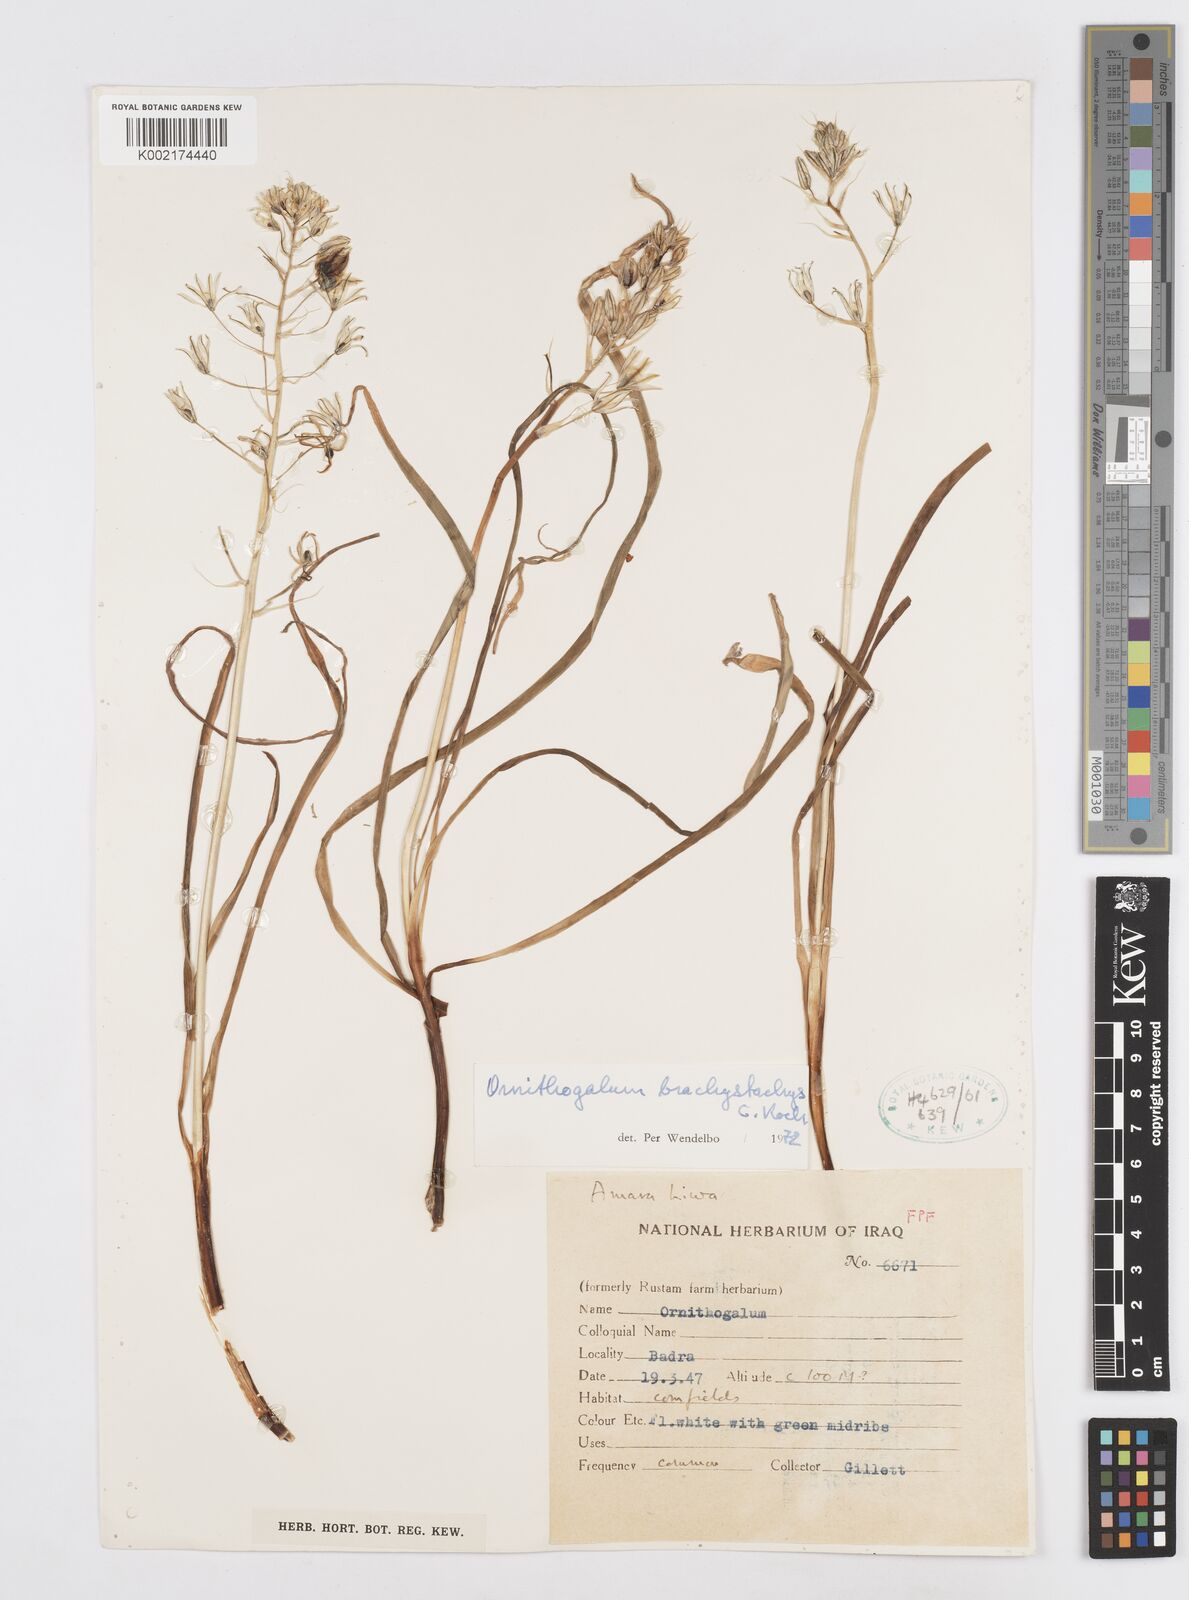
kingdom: Plantae
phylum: Tracheophyta
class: Liliopsida
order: Asparagales
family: Asparagaceae
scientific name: Asparagaceae
